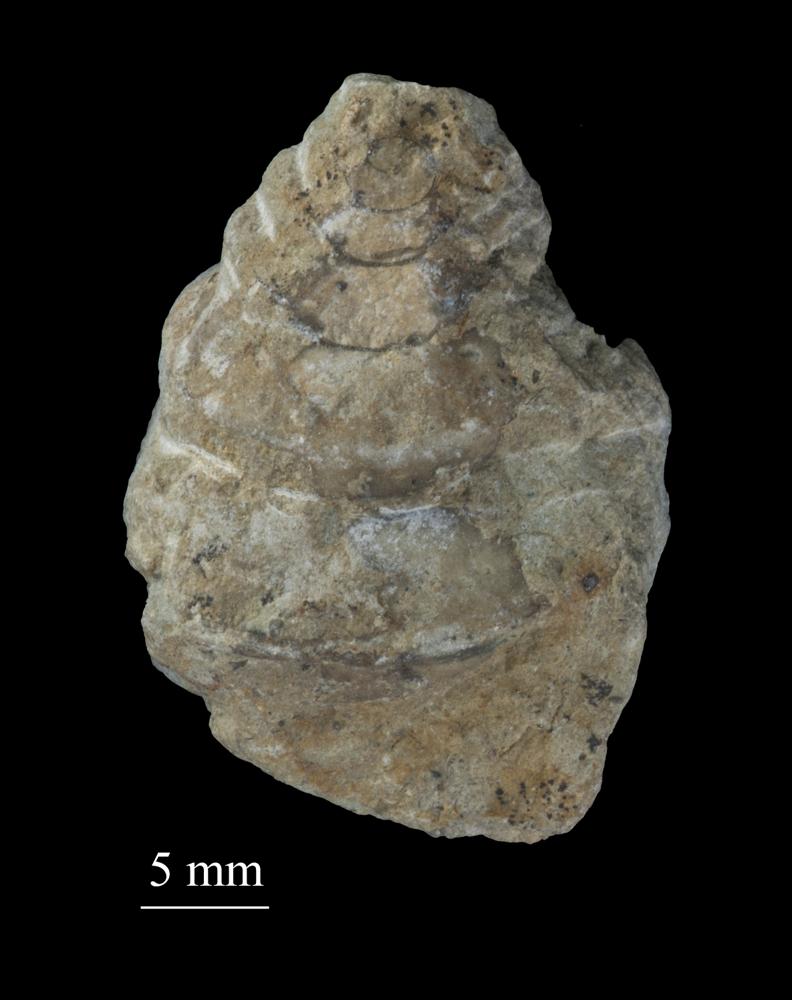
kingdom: Animalia
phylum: Mollusca
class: Gastropoda
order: Neogastropoda
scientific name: Neogastropoda
